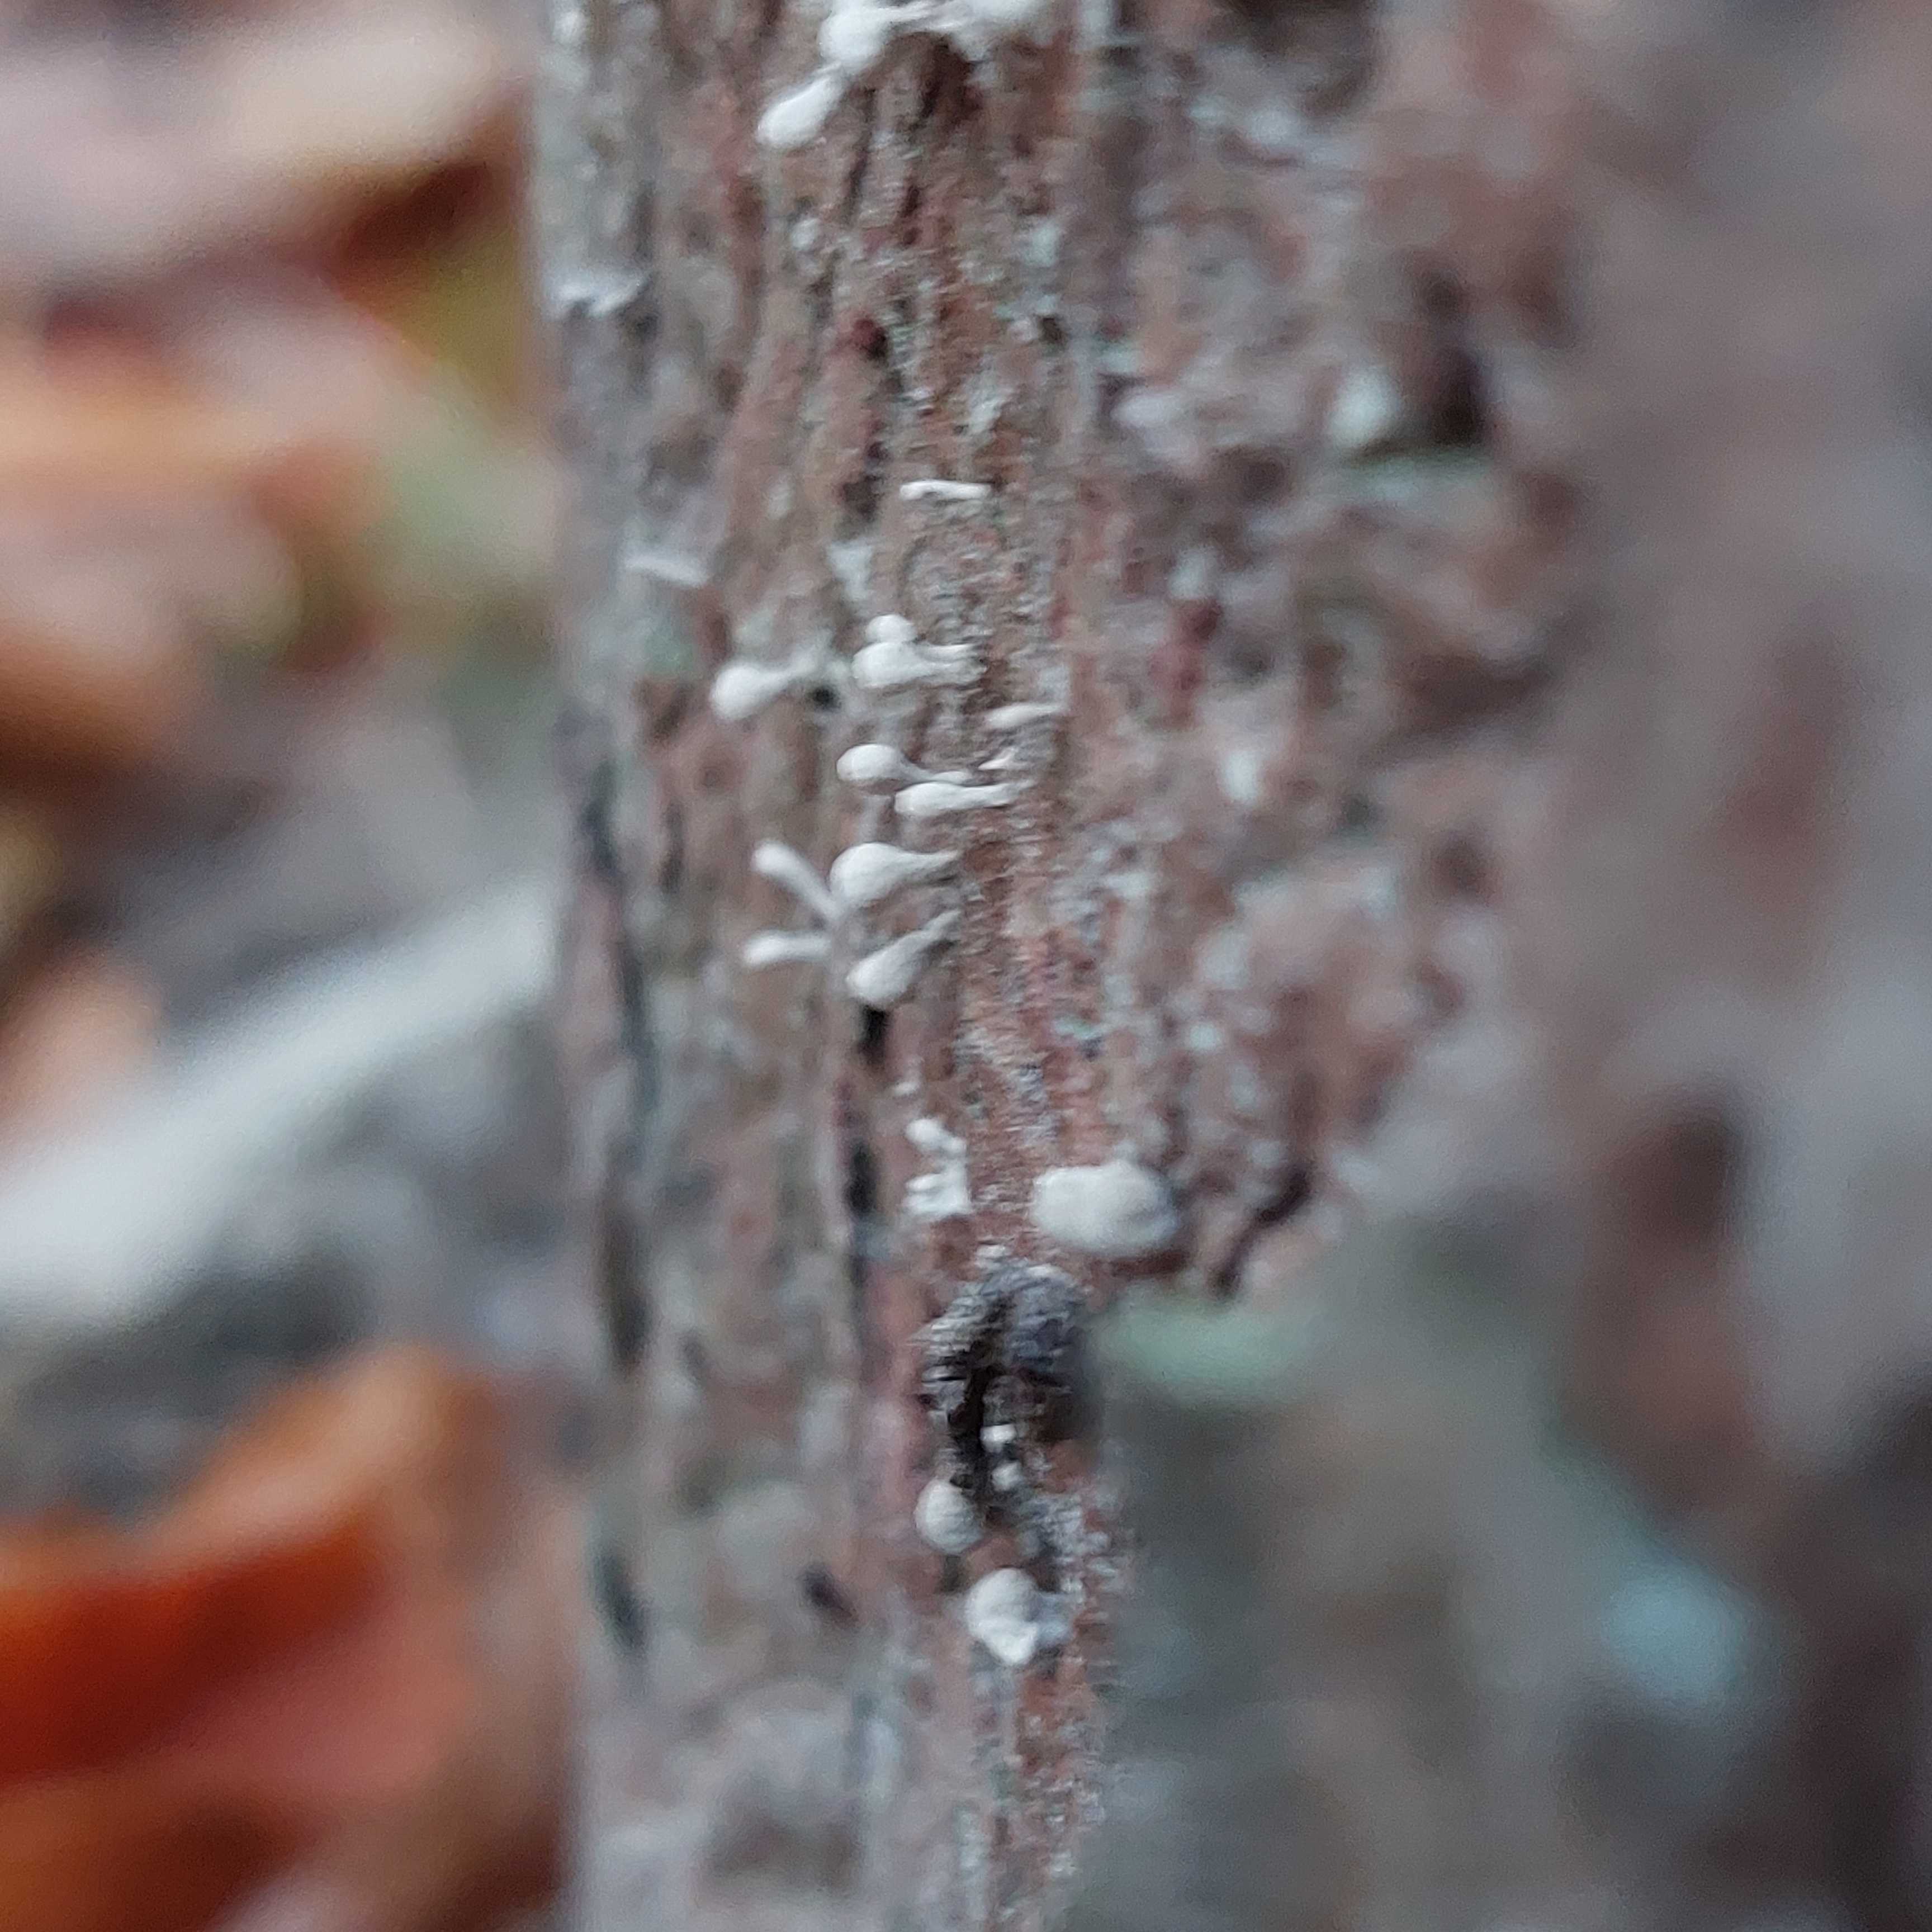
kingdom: Fungi
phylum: Basidiomycota
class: Atractiellomycetes
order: Atractiellales
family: Phleogenaceae
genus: Phleogena
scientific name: Phleogena faginea
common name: pudderkølle
